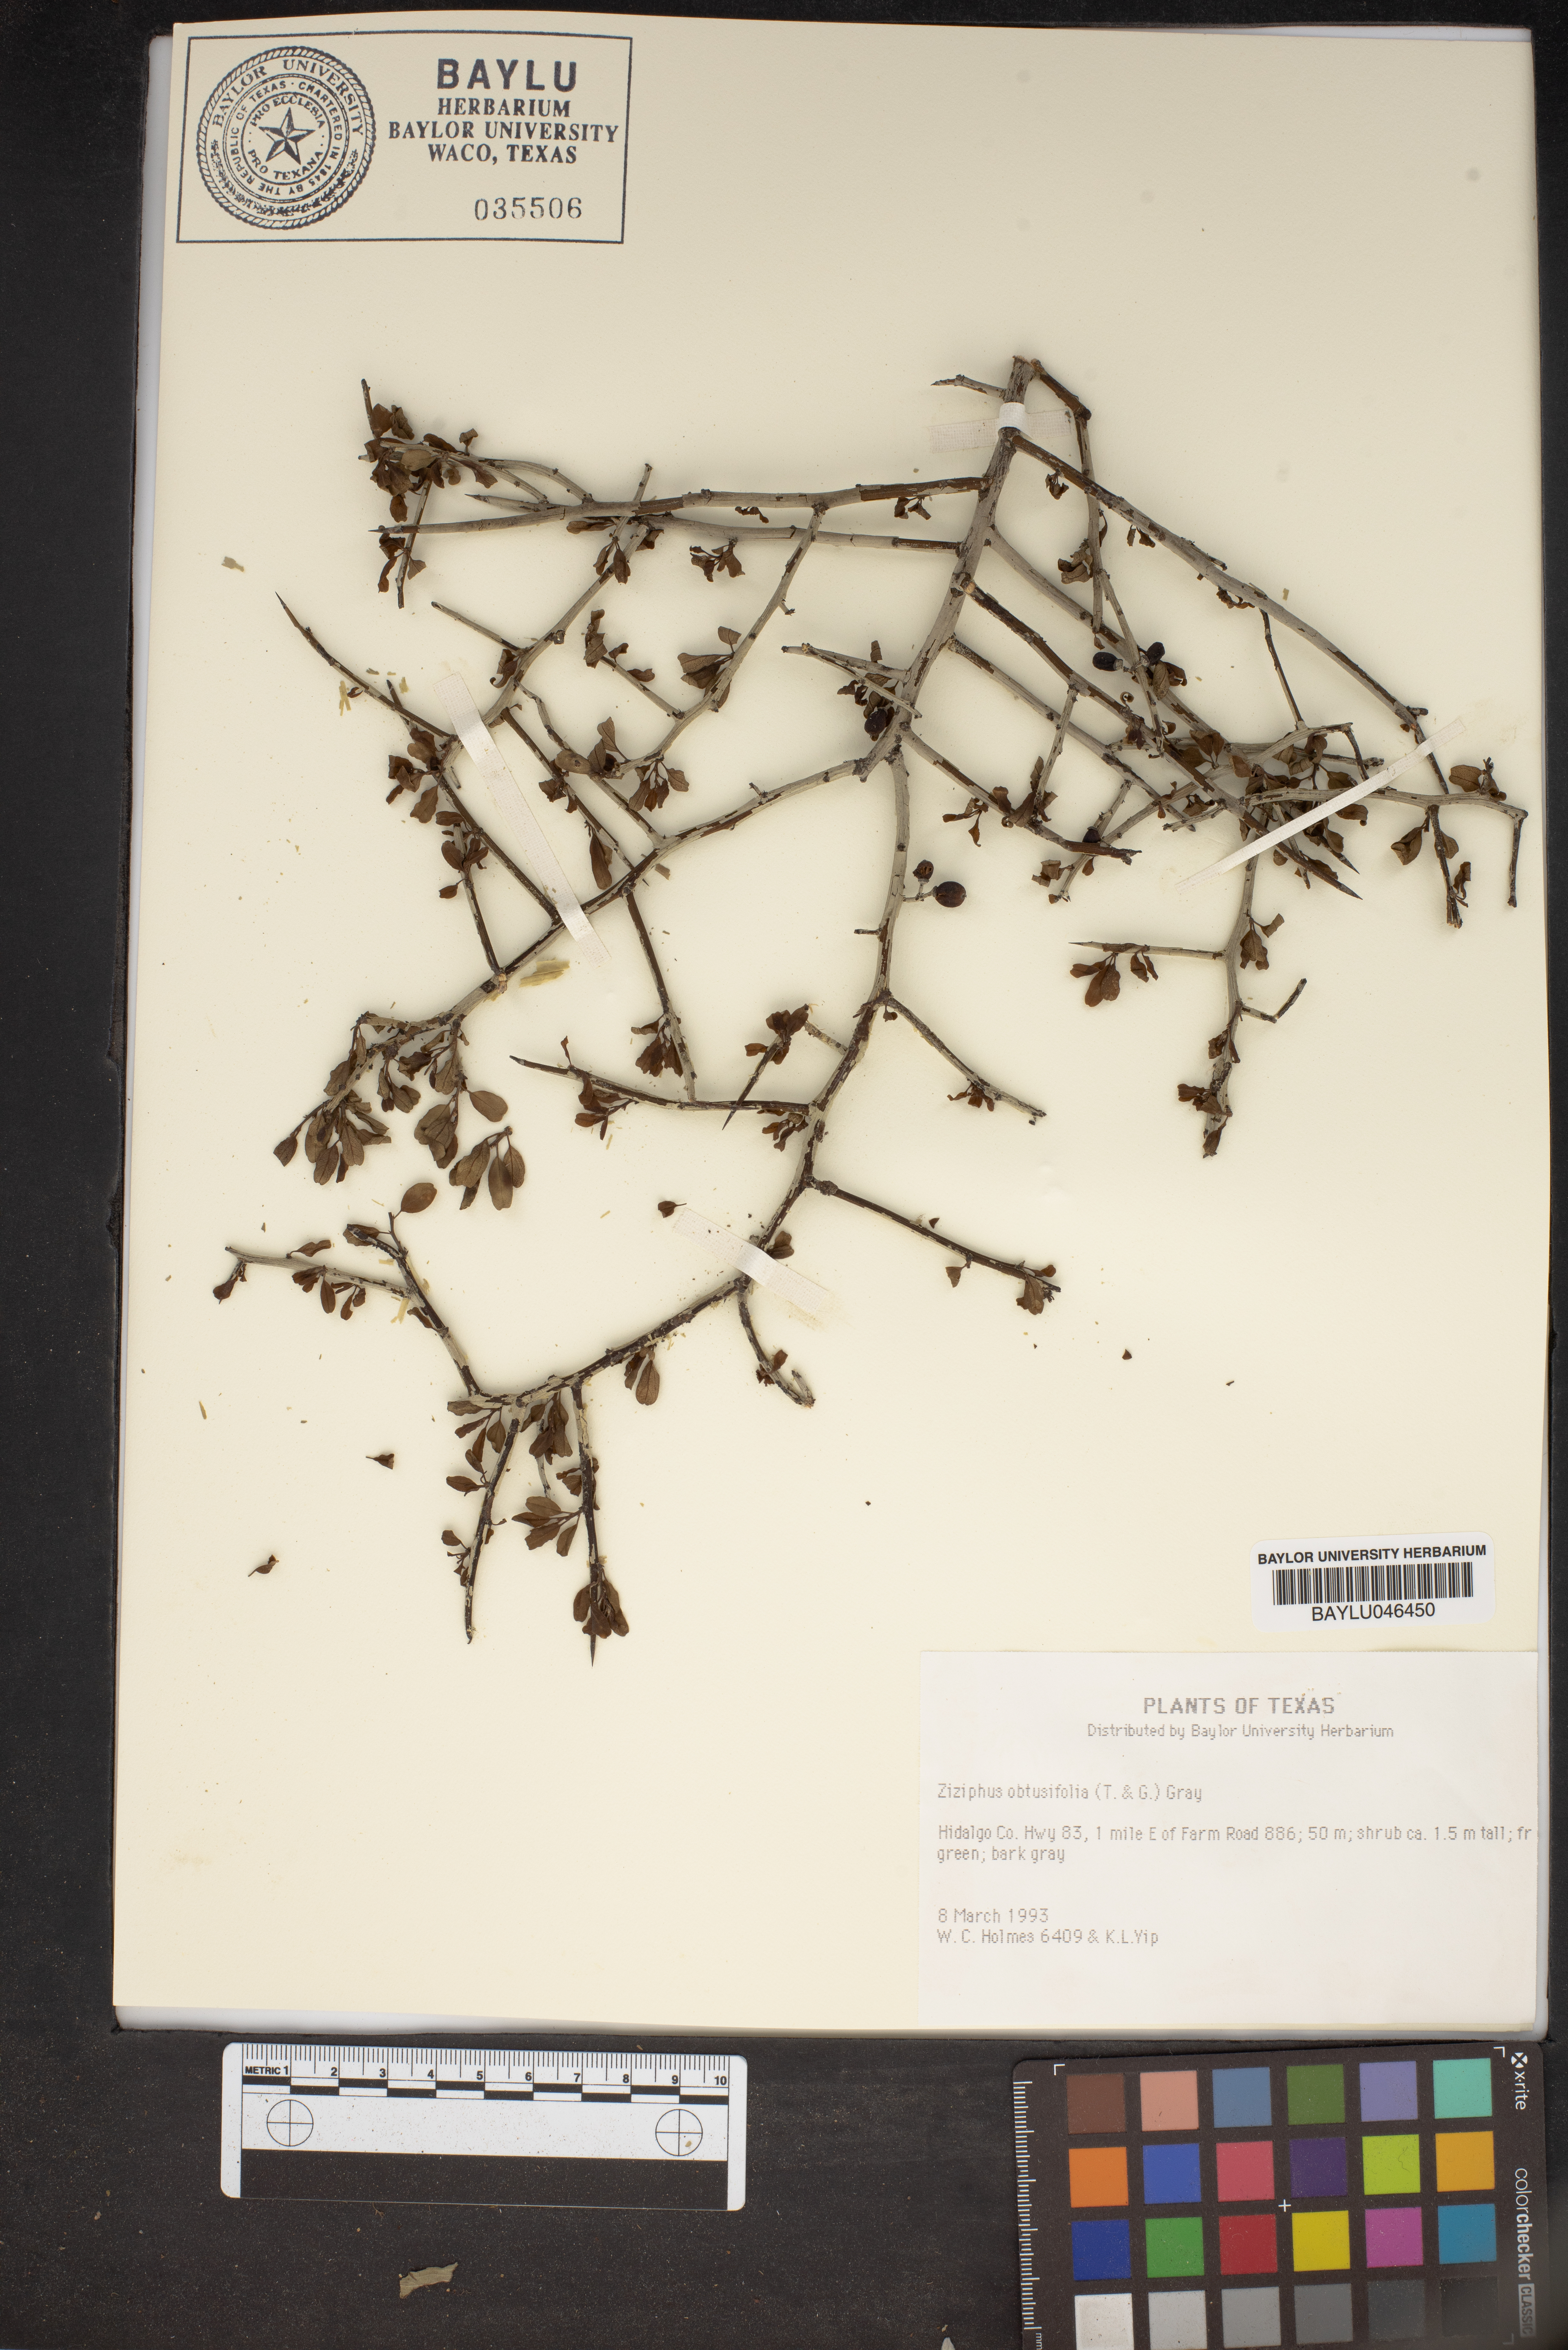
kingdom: Plantae
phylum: Tracheophyta
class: Magnoliopsida
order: Rosales
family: Rhamnaceae
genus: Sarcomphalus
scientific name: Sarcomphalus obtusifolius
